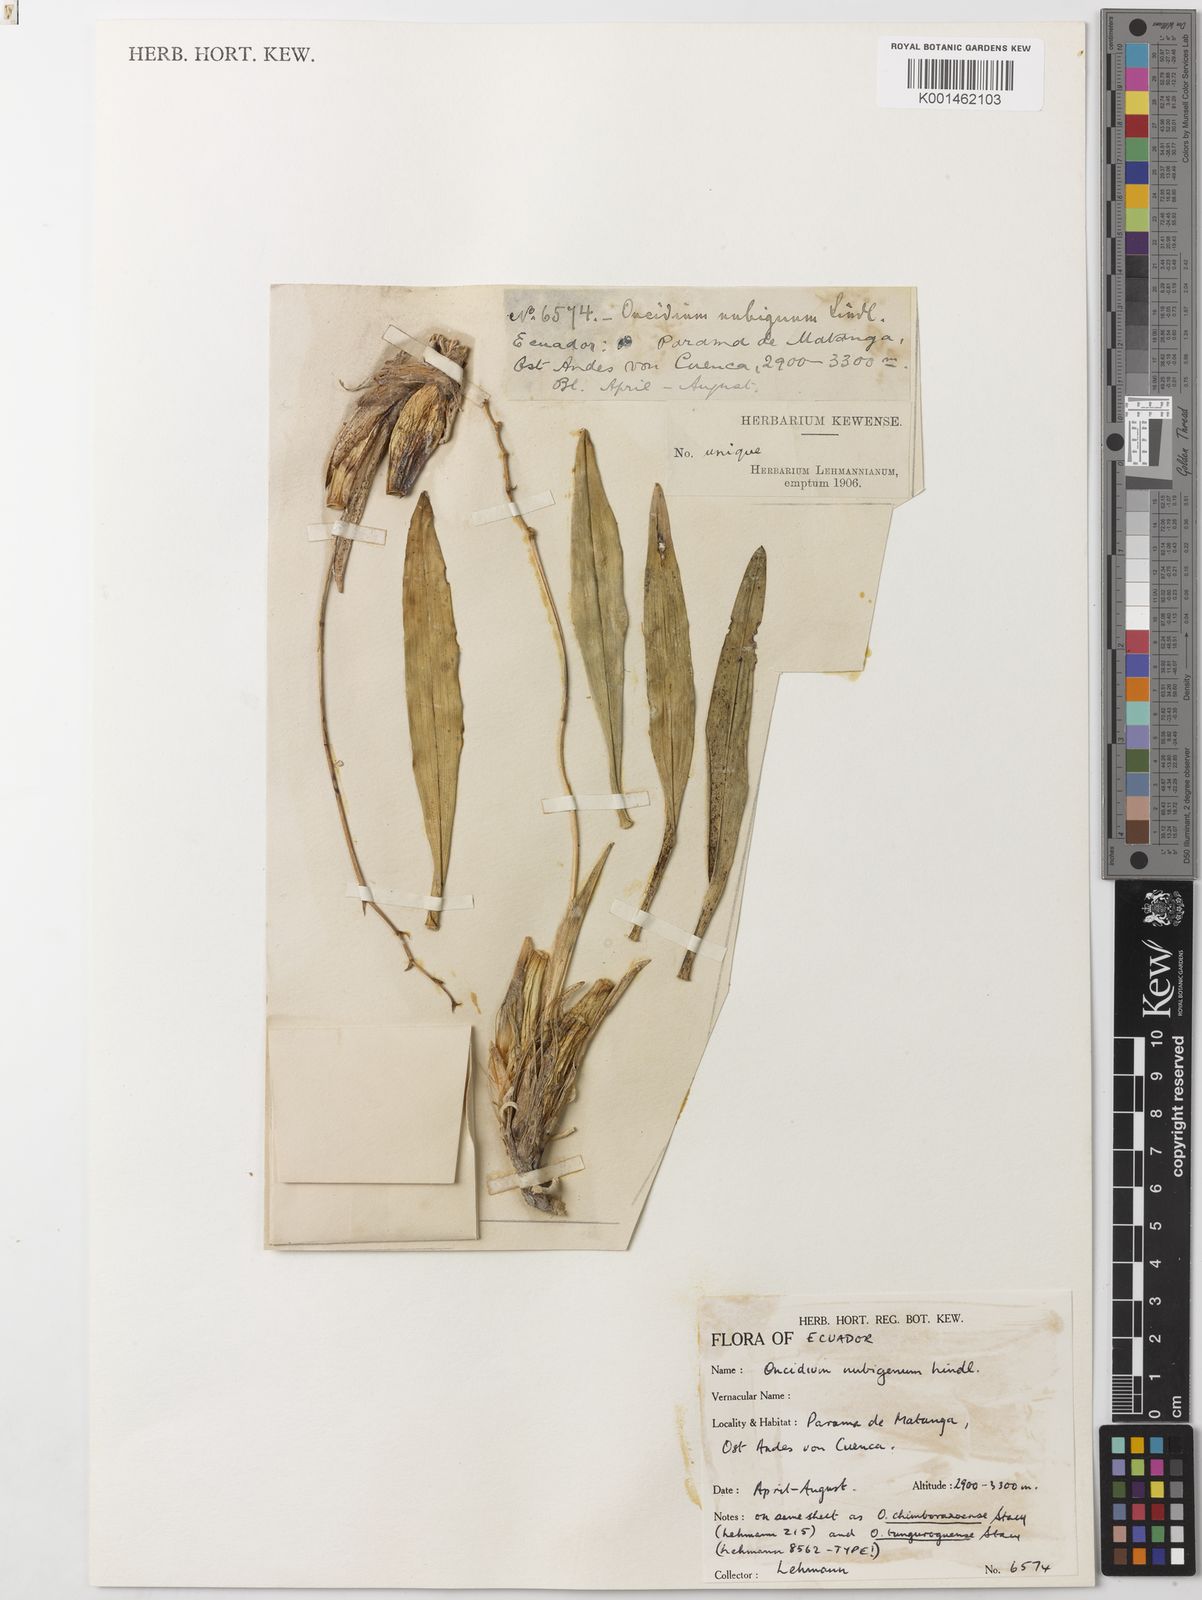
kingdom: Plantae
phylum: Tracheophyta
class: Liliopsida
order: Asparagales
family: Orchidaceae
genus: Caucaea
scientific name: Caucaea nubigena
